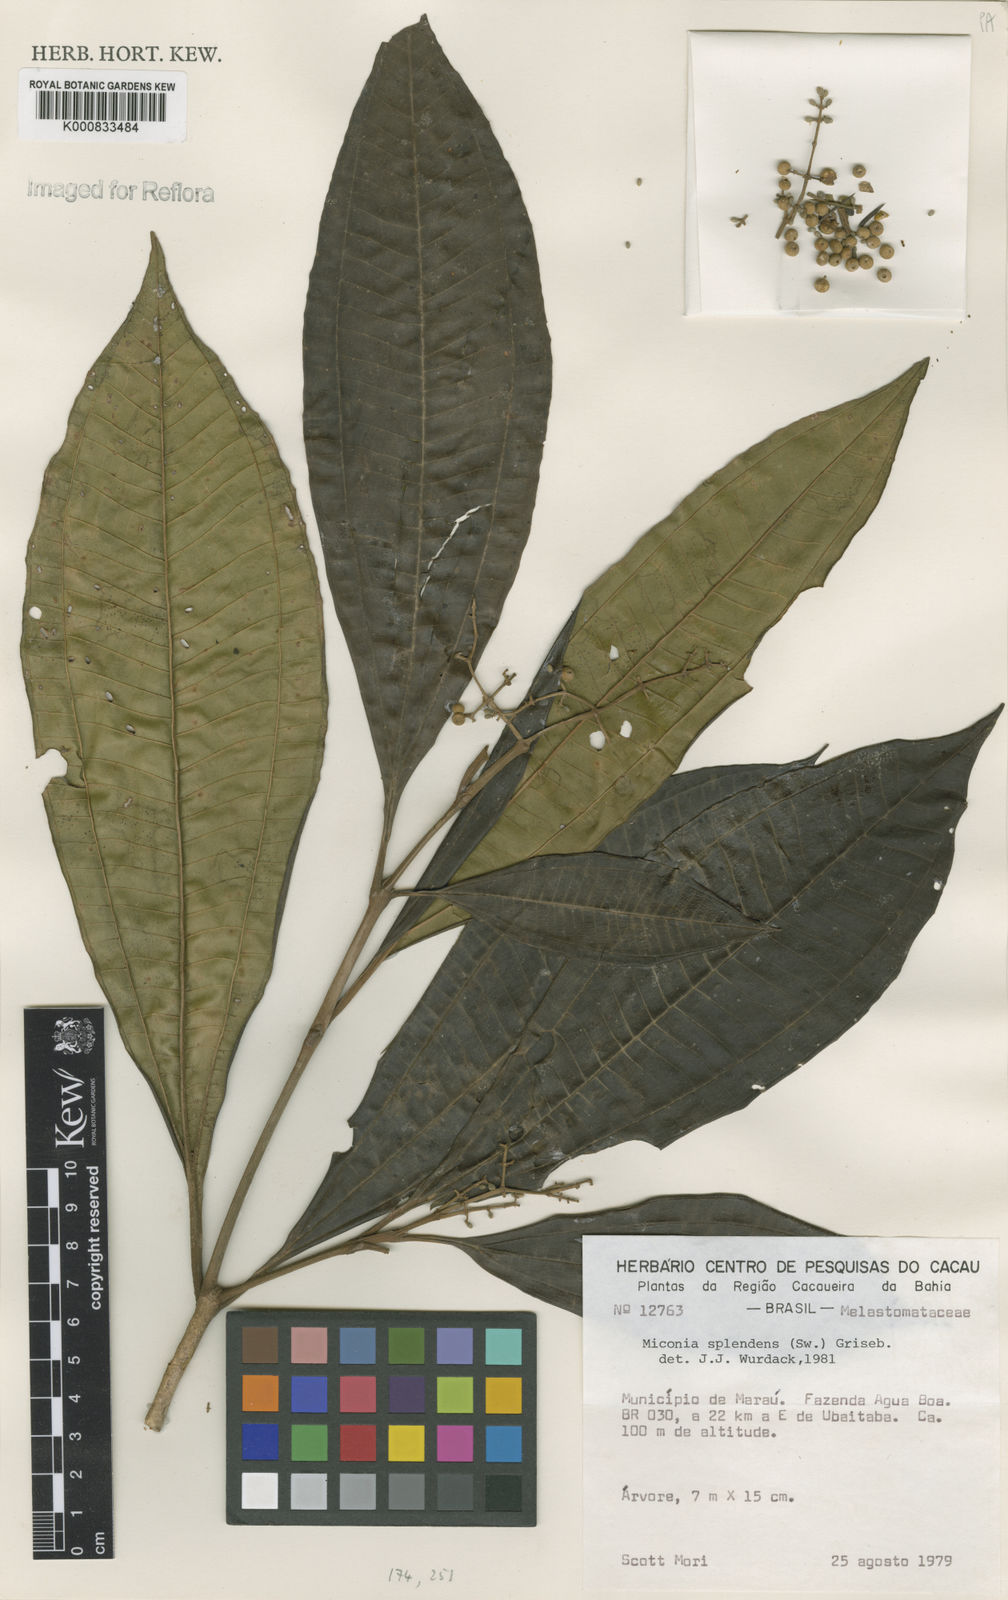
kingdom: Plantae
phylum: Tracheophyta
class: Magnoliopsida
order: Myrtales
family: Melastomataceae
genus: Miconia
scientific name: Miconia splendens
